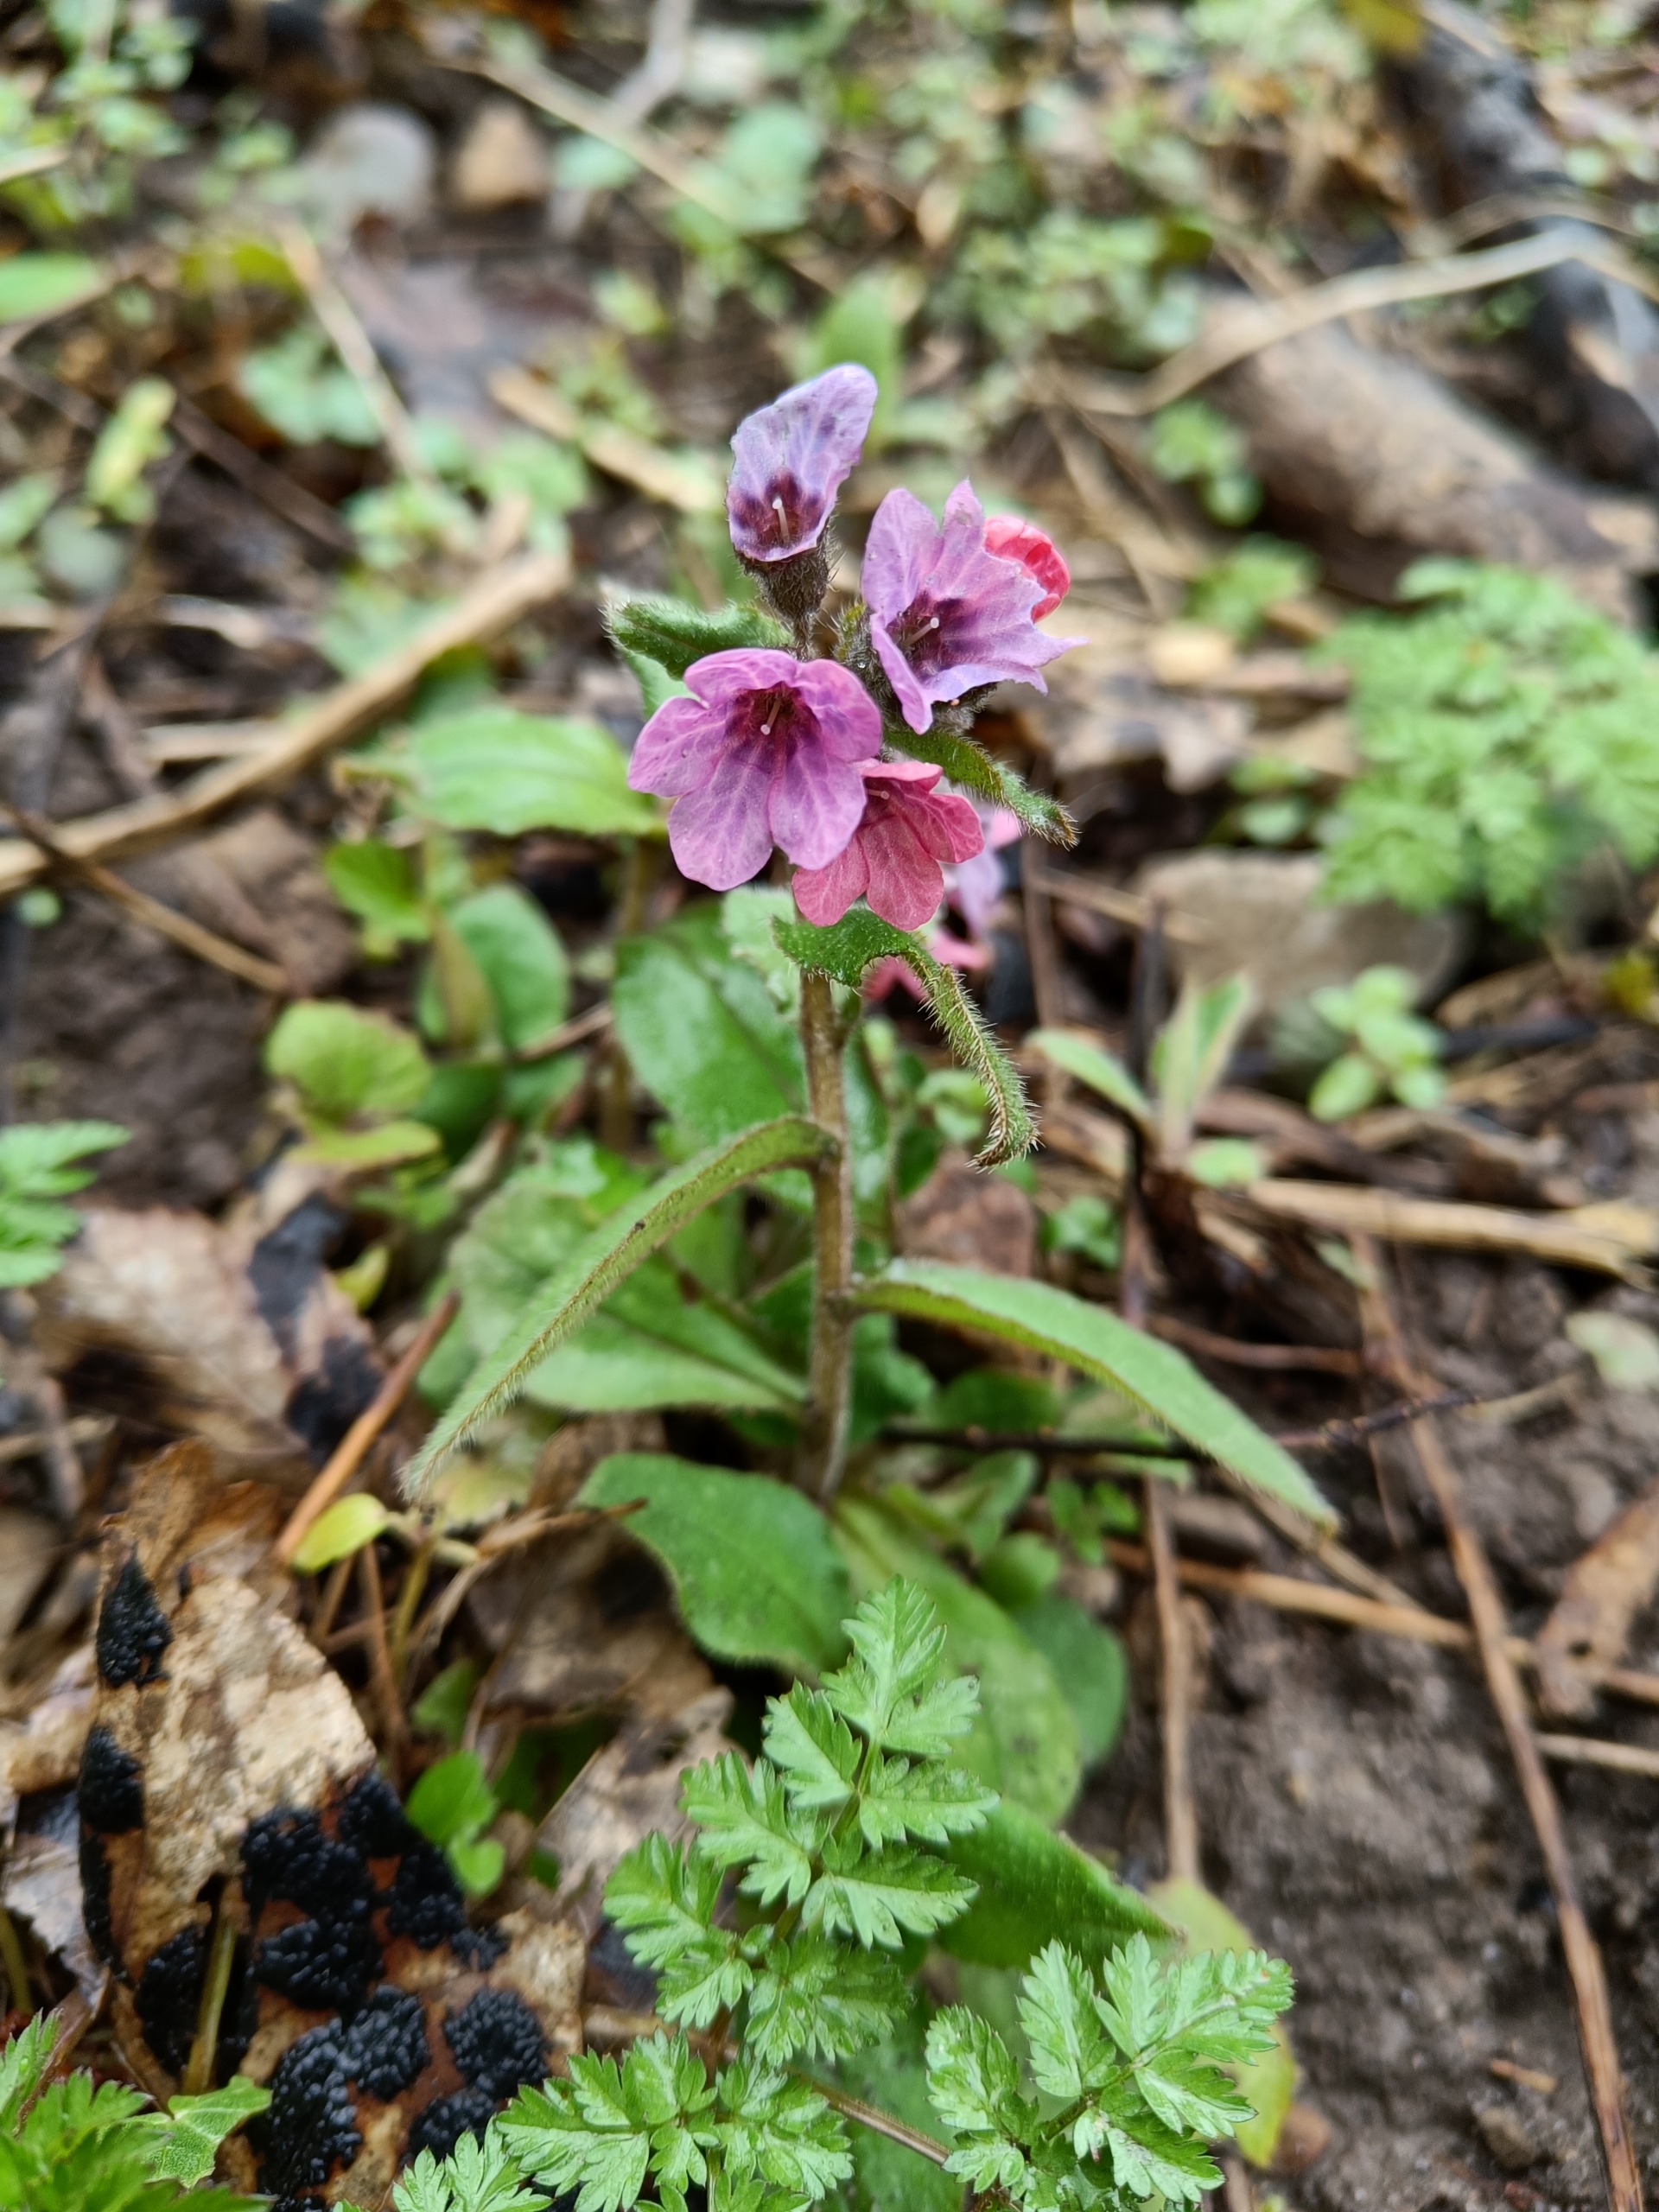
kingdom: Plantae
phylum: Tracheophyta
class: Magnoliopsida
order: Boraginales
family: Boraginaceae
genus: Pulmonaria
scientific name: Pulmonaria obscura
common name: Almindelig lungeurt
